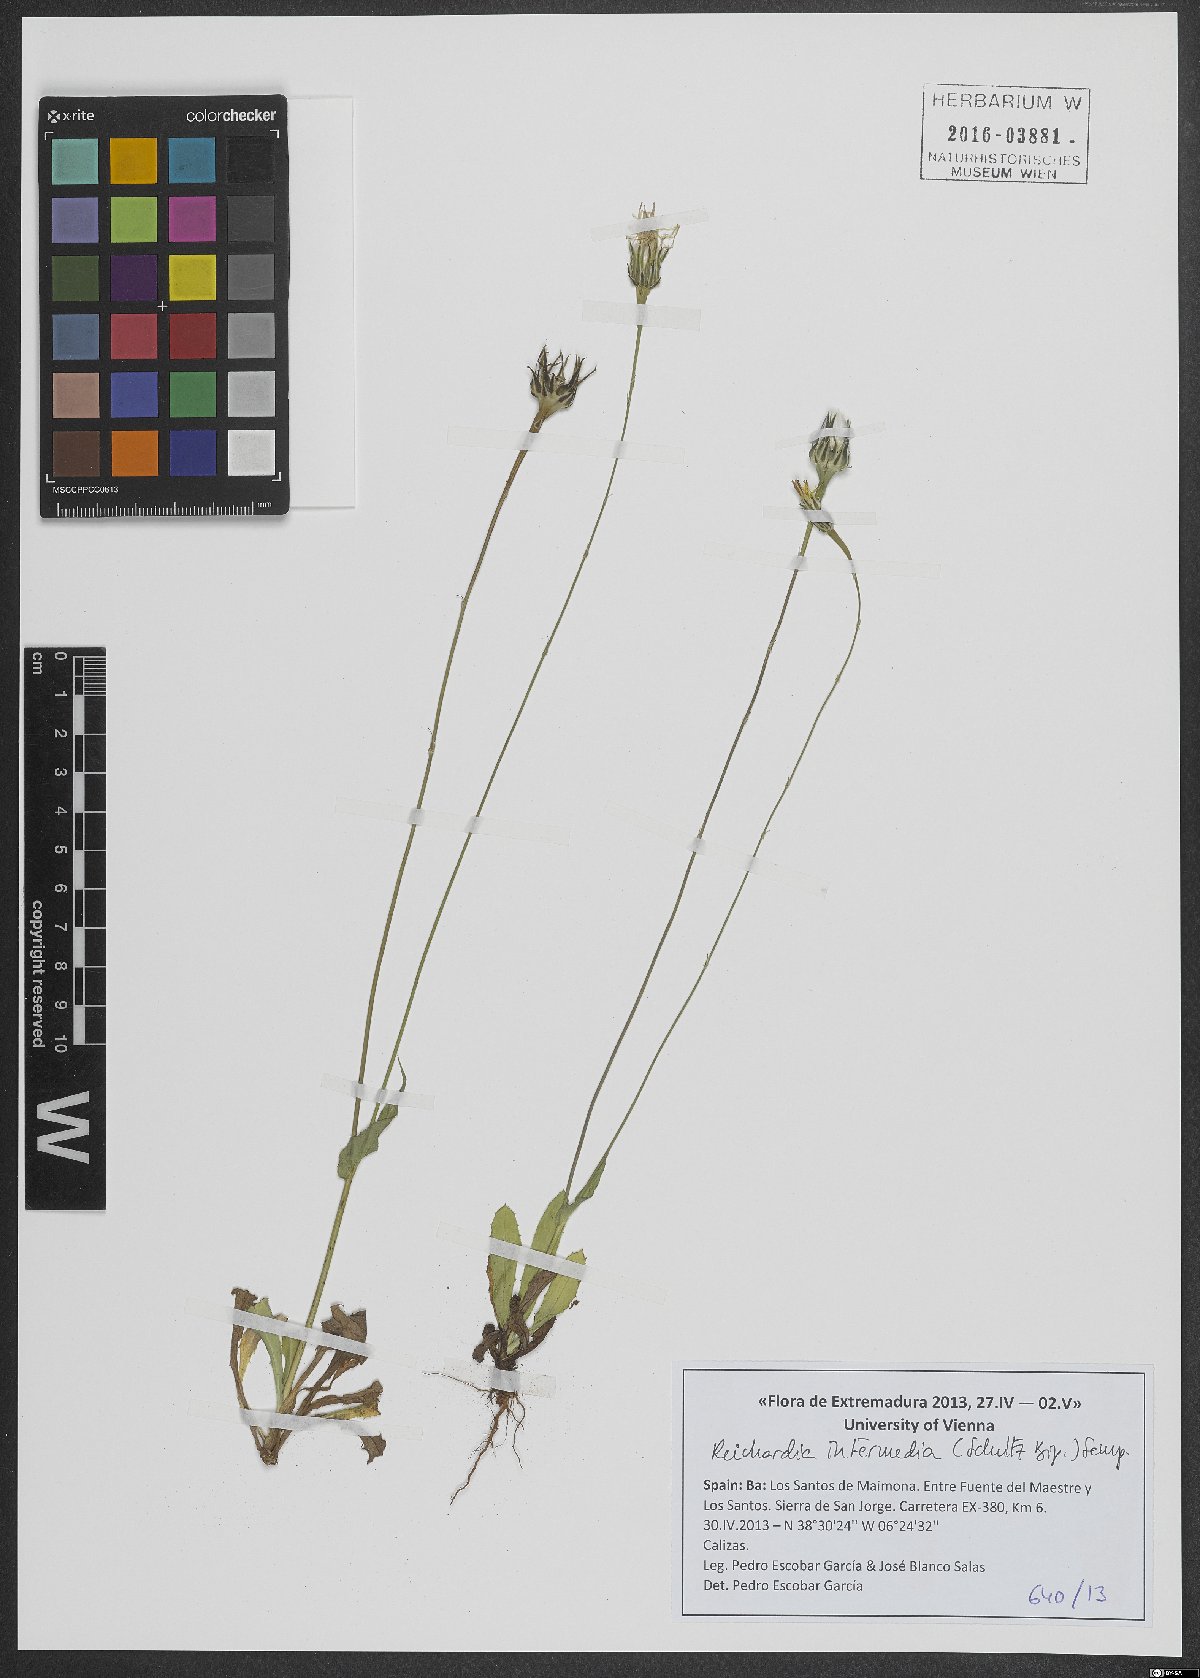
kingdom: Plantae
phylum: Tracheophyta
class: Magnoliopsida
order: Asterales
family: Asteraceae
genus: Reichardia
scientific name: Reichardia intermedia
